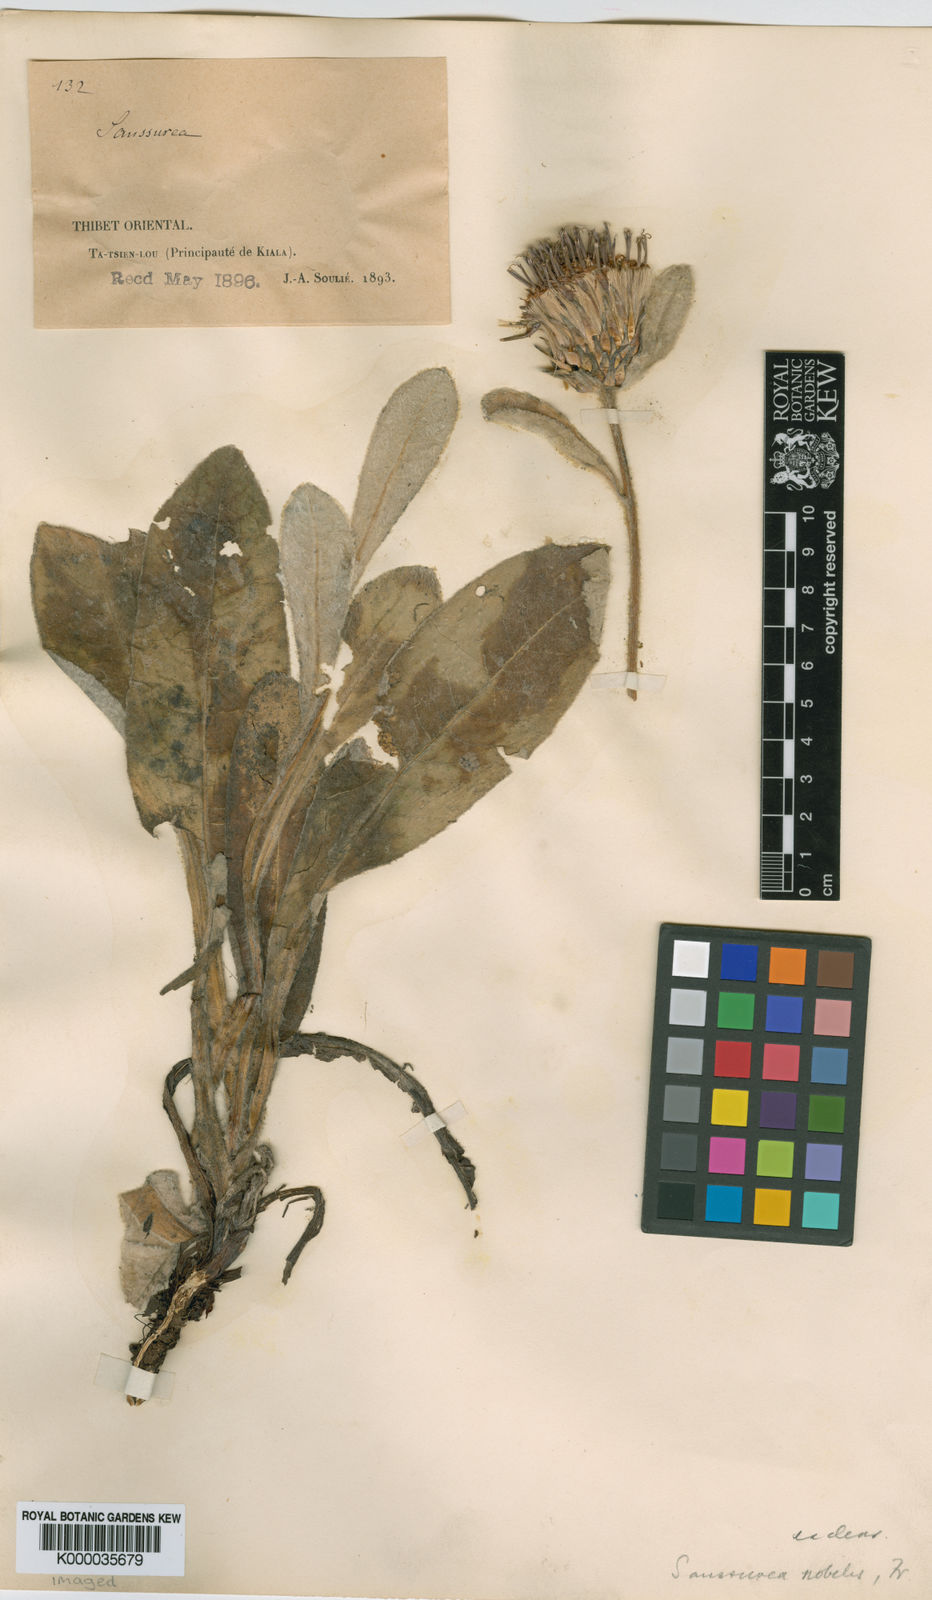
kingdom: Plantae
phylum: Tracheophyta
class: Magnoliopsida
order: Asterales
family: Asteraceae
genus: Saussurea
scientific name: Saussurea woodiana
